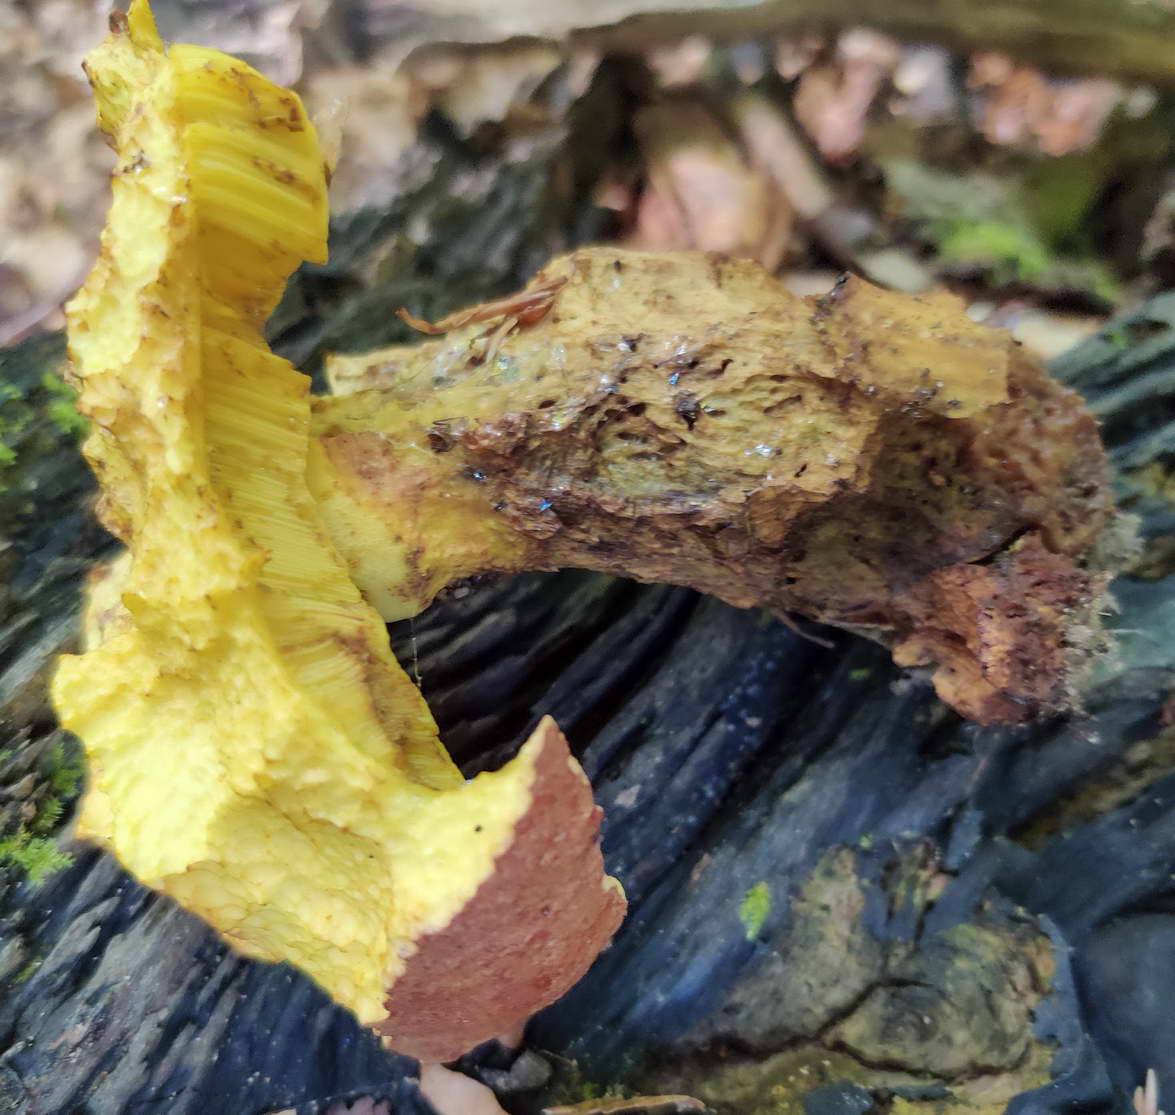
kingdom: Fungi
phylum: Basidiomycota
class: Agaricomycetes
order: Boletales
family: Boletaceae
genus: Butyriboletus
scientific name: Butyriboletus appendiculatus
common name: tenstokket rørhat
